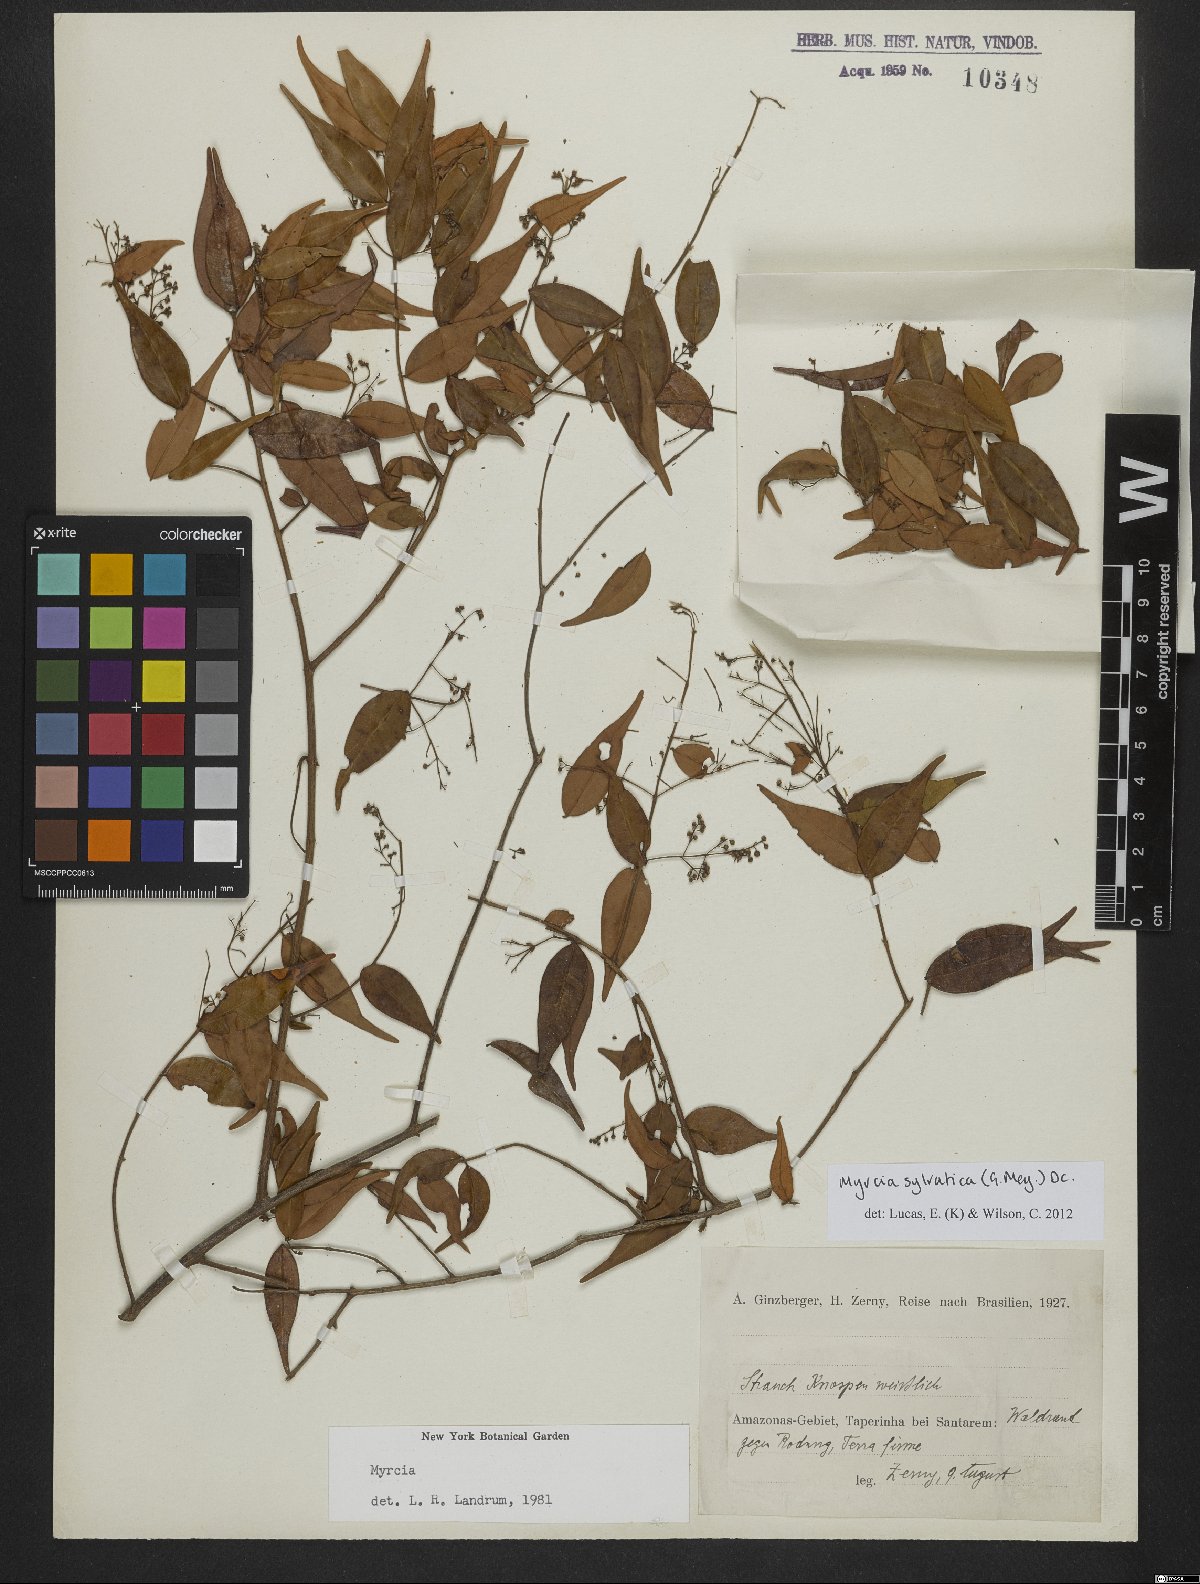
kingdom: Plantae
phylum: Tracheophyta
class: Magnoliopsida
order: Myrtales
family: Myrtaceae
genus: Myrcia
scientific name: Myrcia sylvatica
